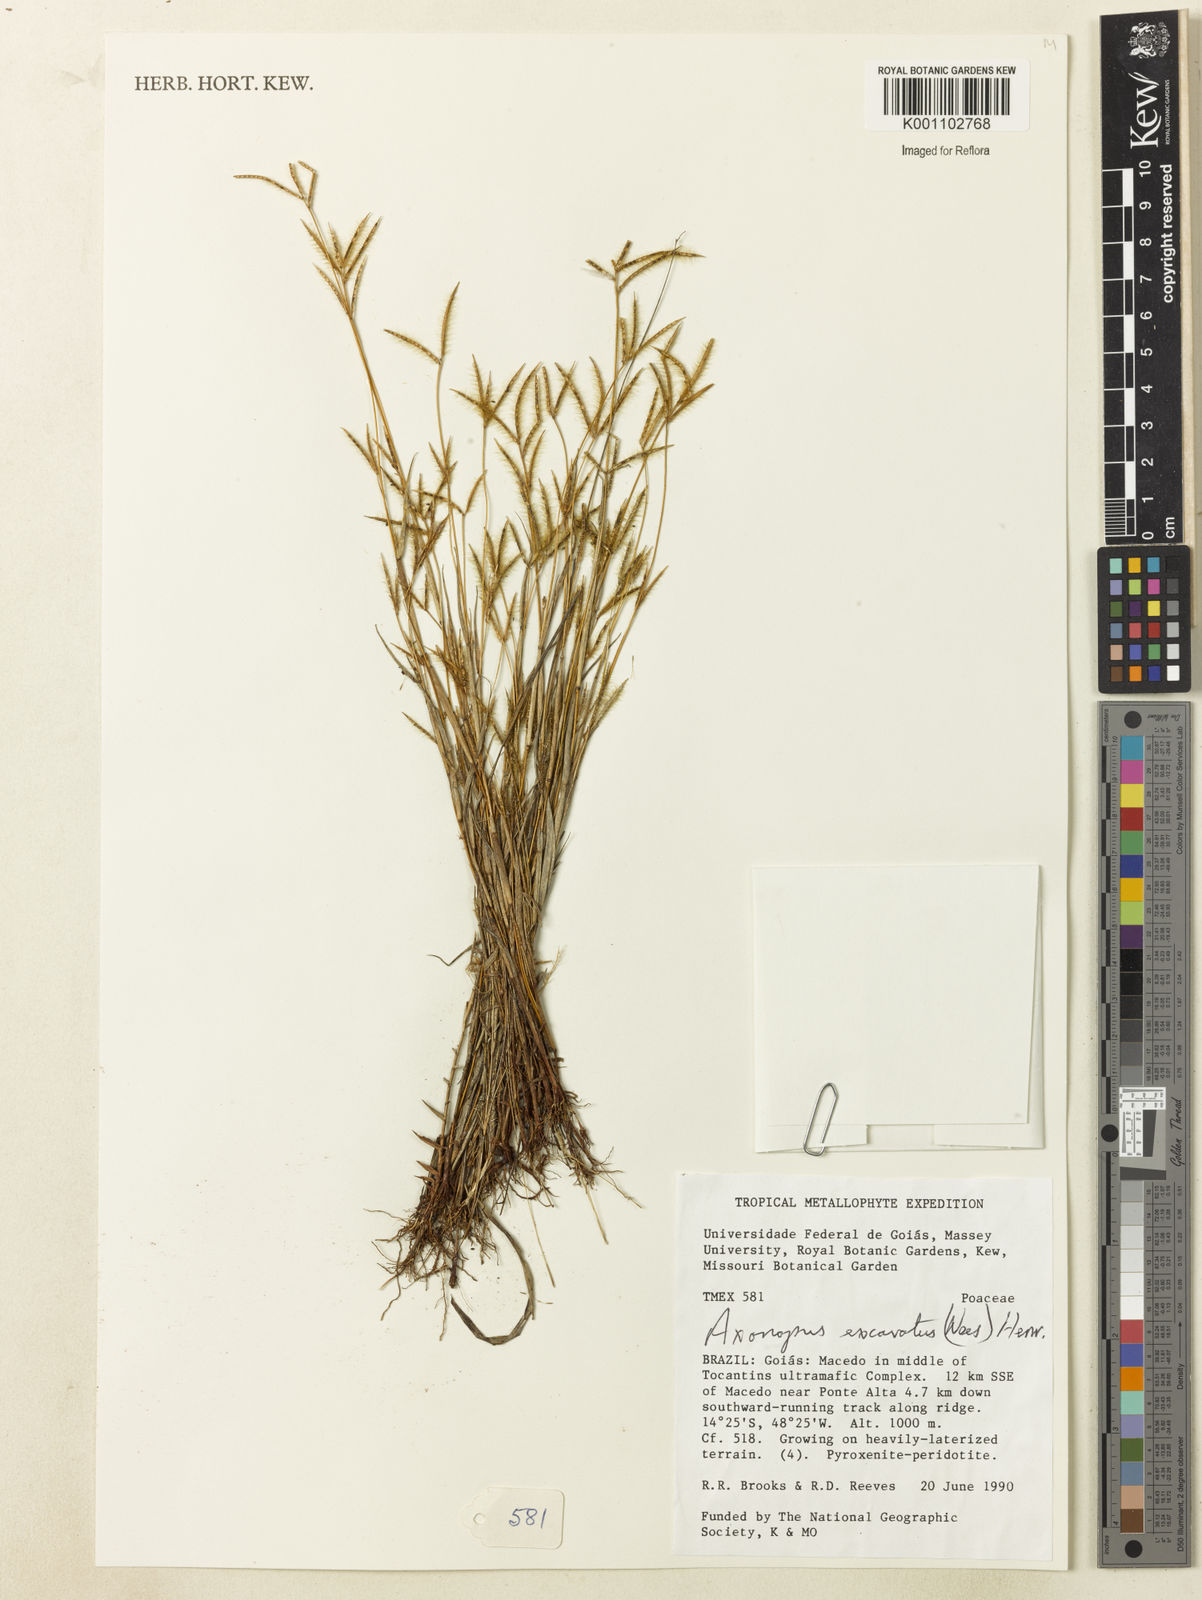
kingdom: Plantae
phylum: Tracheophyta
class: Liliopsida
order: Poales
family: Poaceae
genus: Axonopus
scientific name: Axonopus aureus
